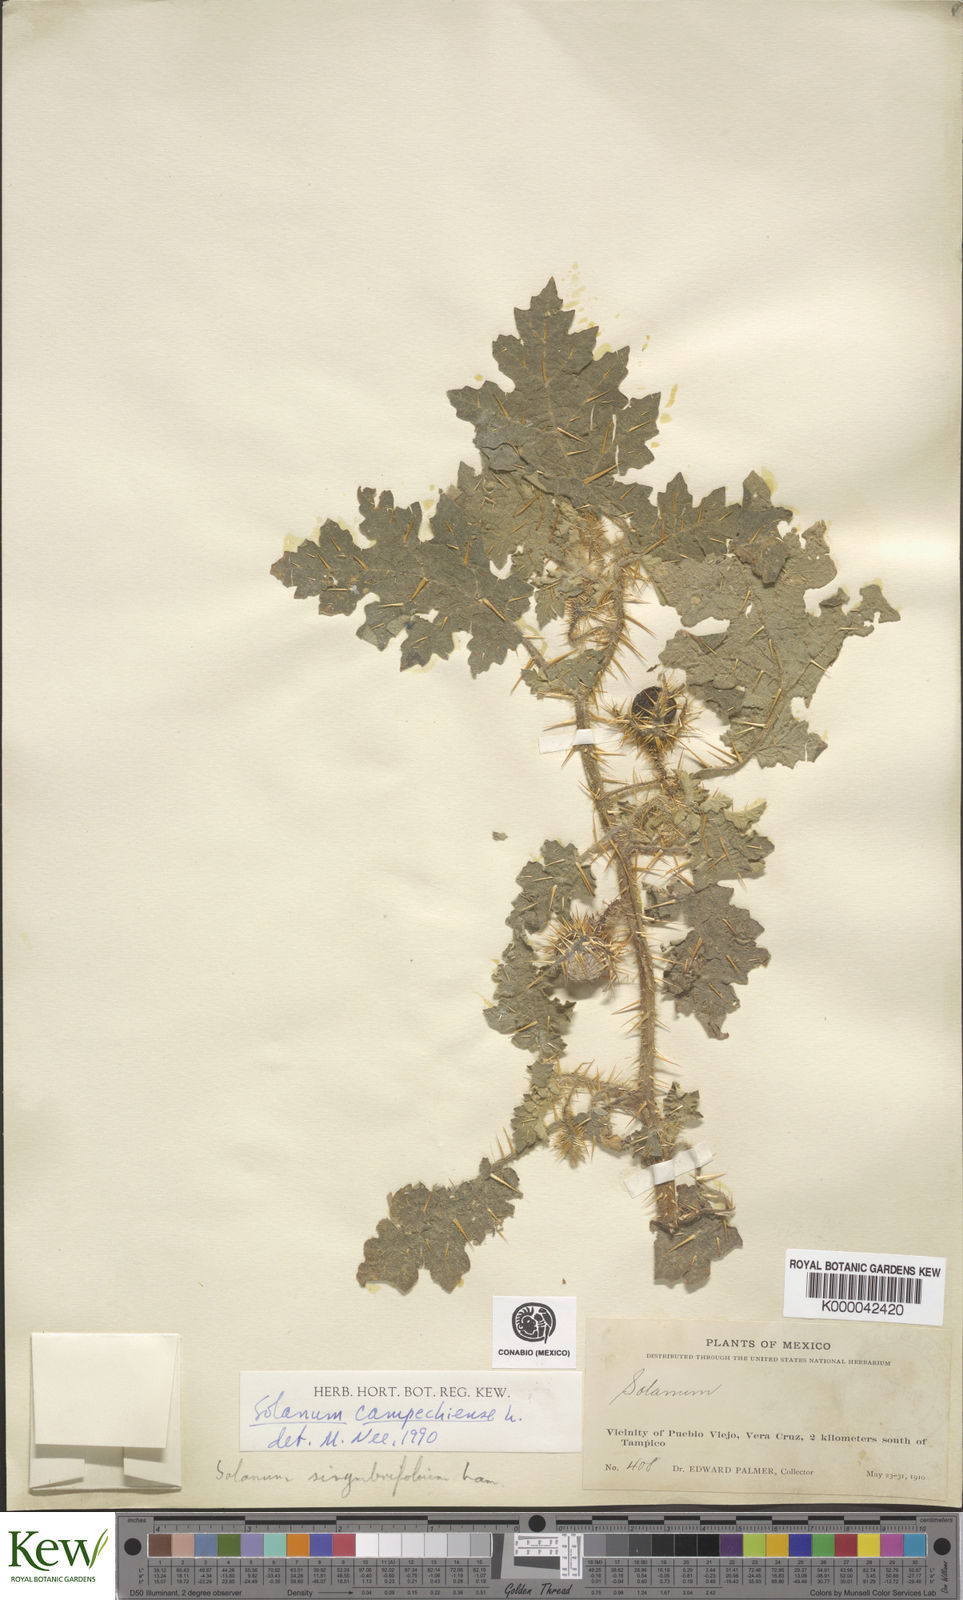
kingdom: Plantae
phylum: Tracheophyta
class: Magnoliopsida
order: Solanales
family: Solanaceae
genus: Solanum
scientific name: Solanum campechiense
